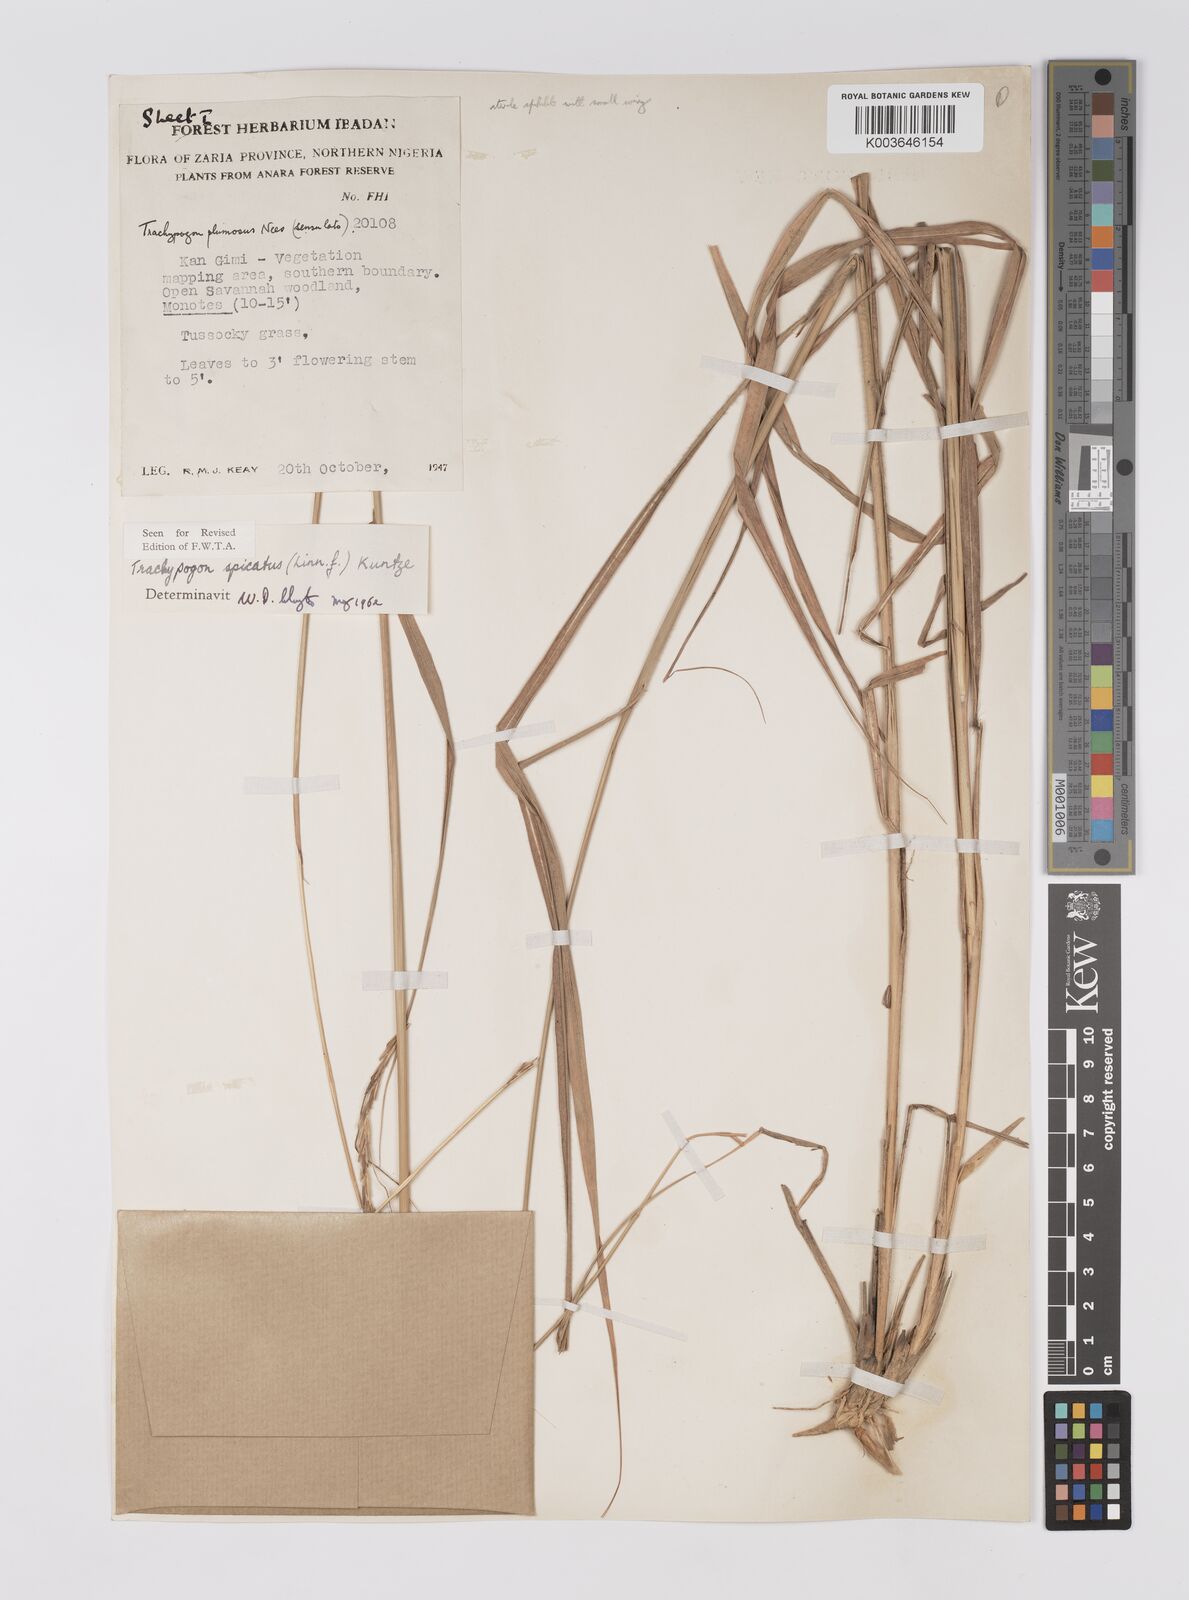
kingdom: Plantae
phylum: Tracheophyta
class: Liliopsida
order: Poales
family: Poaceae
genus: Trachypogon
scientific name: Trachypogon spicatus
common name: Crinkle-awn
